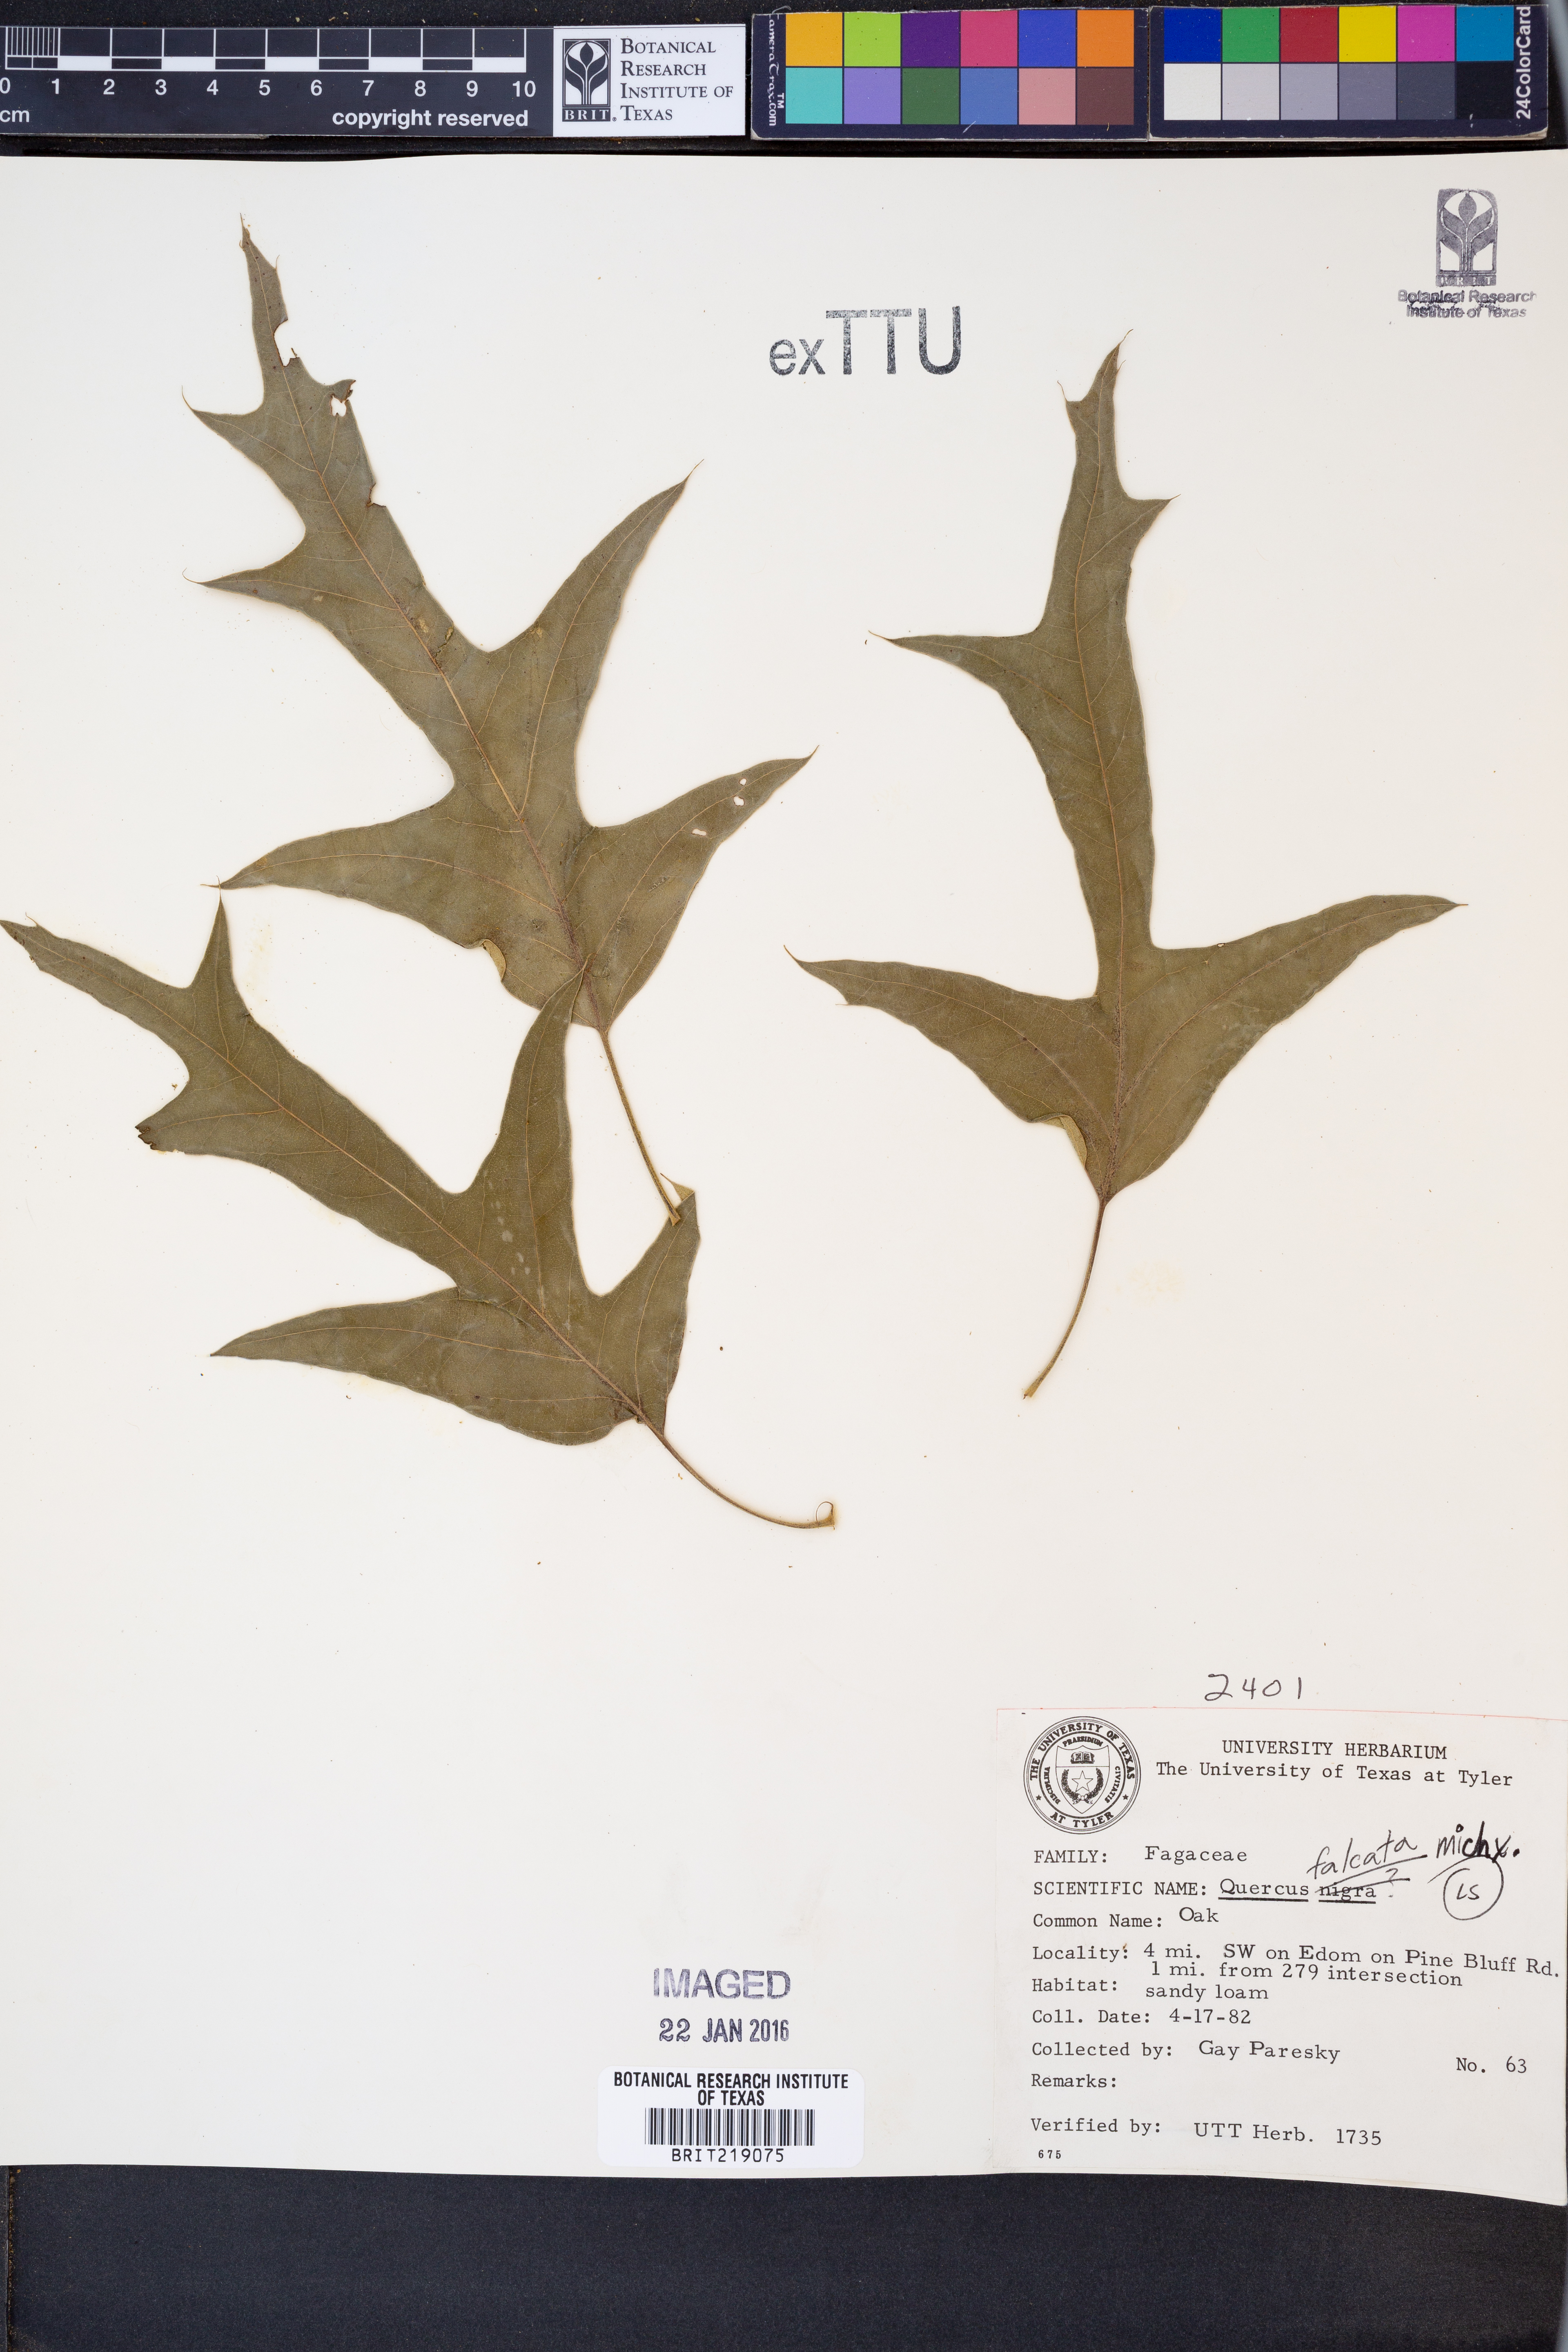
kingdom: Plantae
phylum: Tracheophyta
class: Magnoliopsida
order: Fagales
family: Fagaceae
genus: Quercus
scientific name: Quercus falcata
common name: Southern red oak
